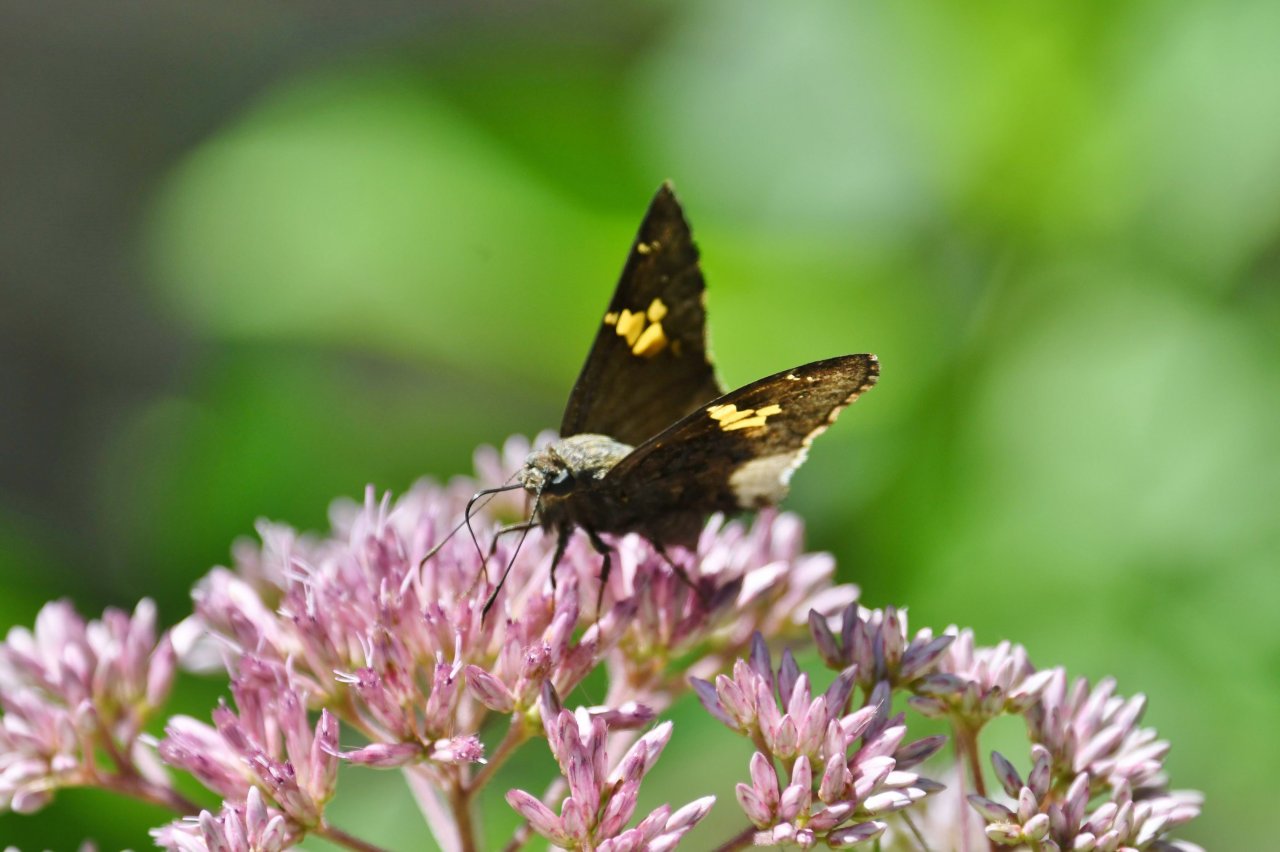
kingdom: Animalia
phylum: Arthropoda
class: Insecta
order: Lepidoptera
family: Hesperiidae
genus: Achalarus
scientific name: Achalarus lyciades
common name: Hoary Edge
